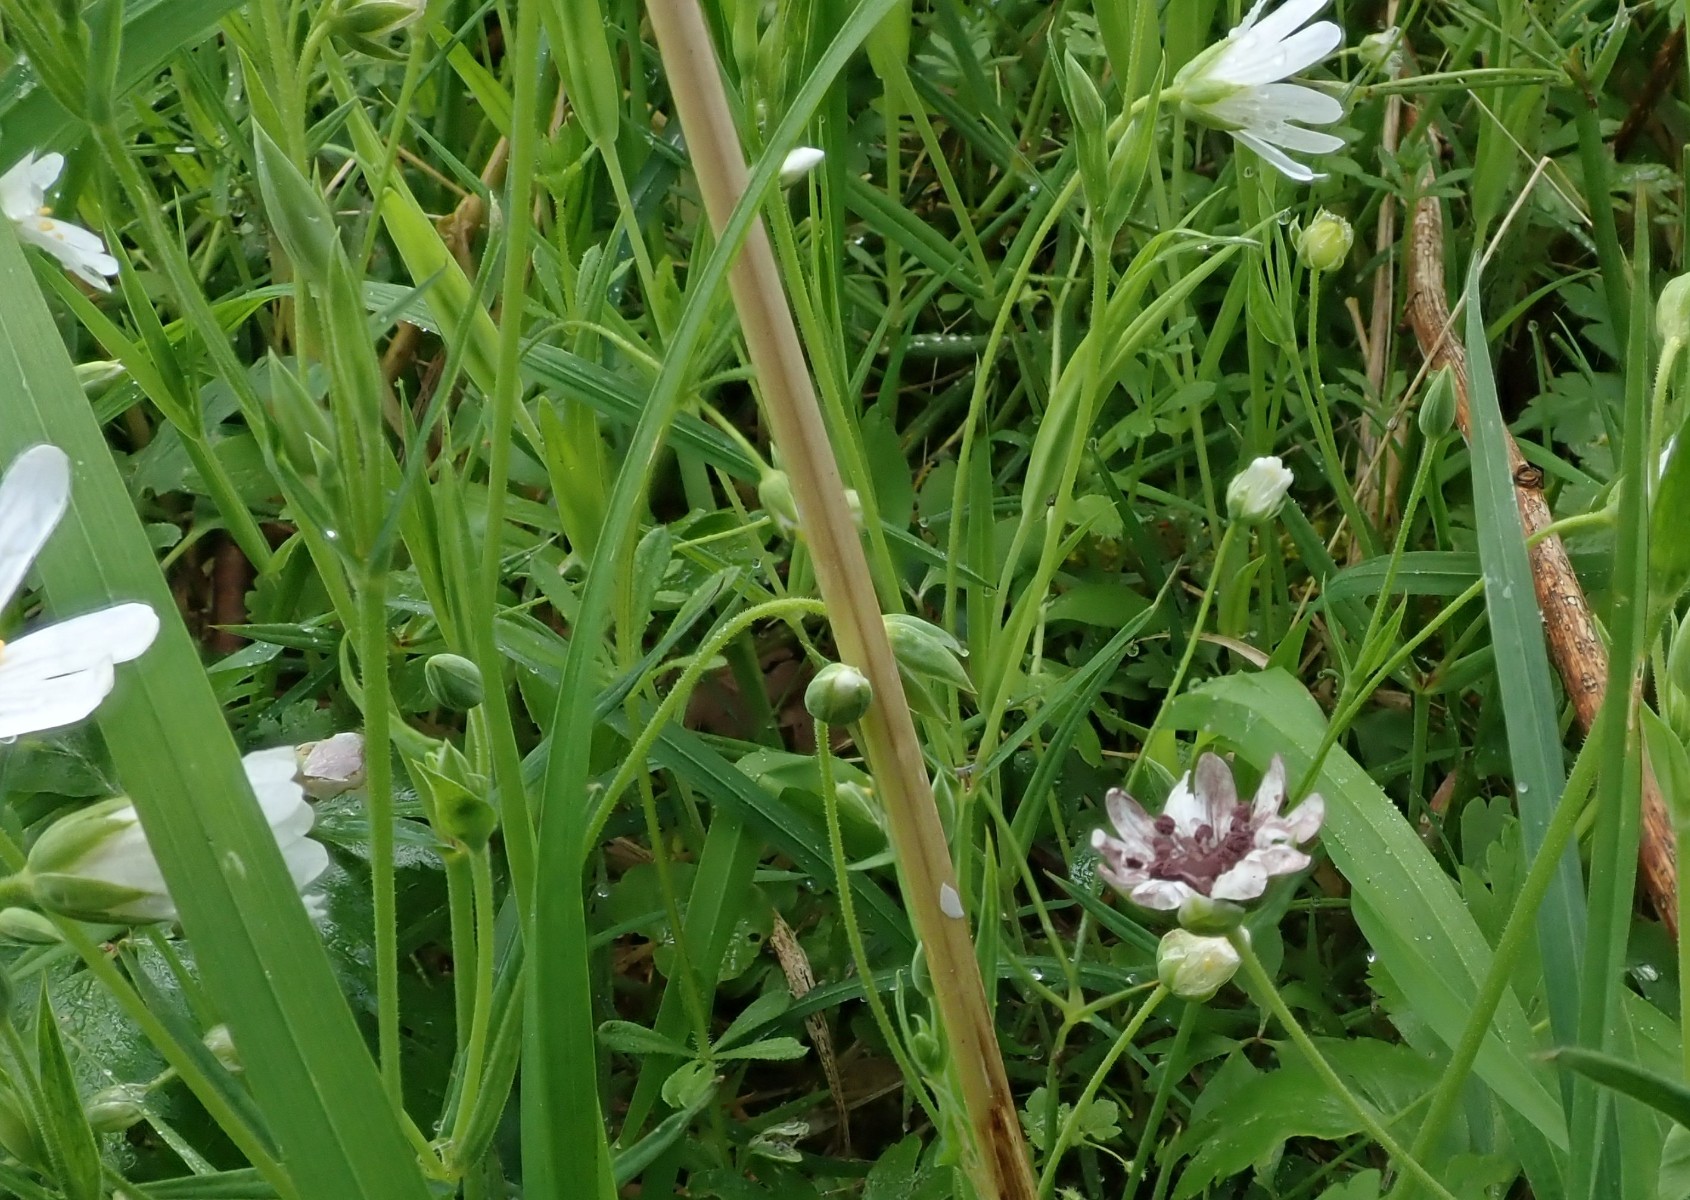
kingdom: Fungi
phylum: Basidiomycota
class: Microbotryomycetes
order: Microbotryales
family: Microbotryaceae
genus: Microbotryum
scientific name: Microbotryum stellariae
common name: fladstjerne-støvbladrust
